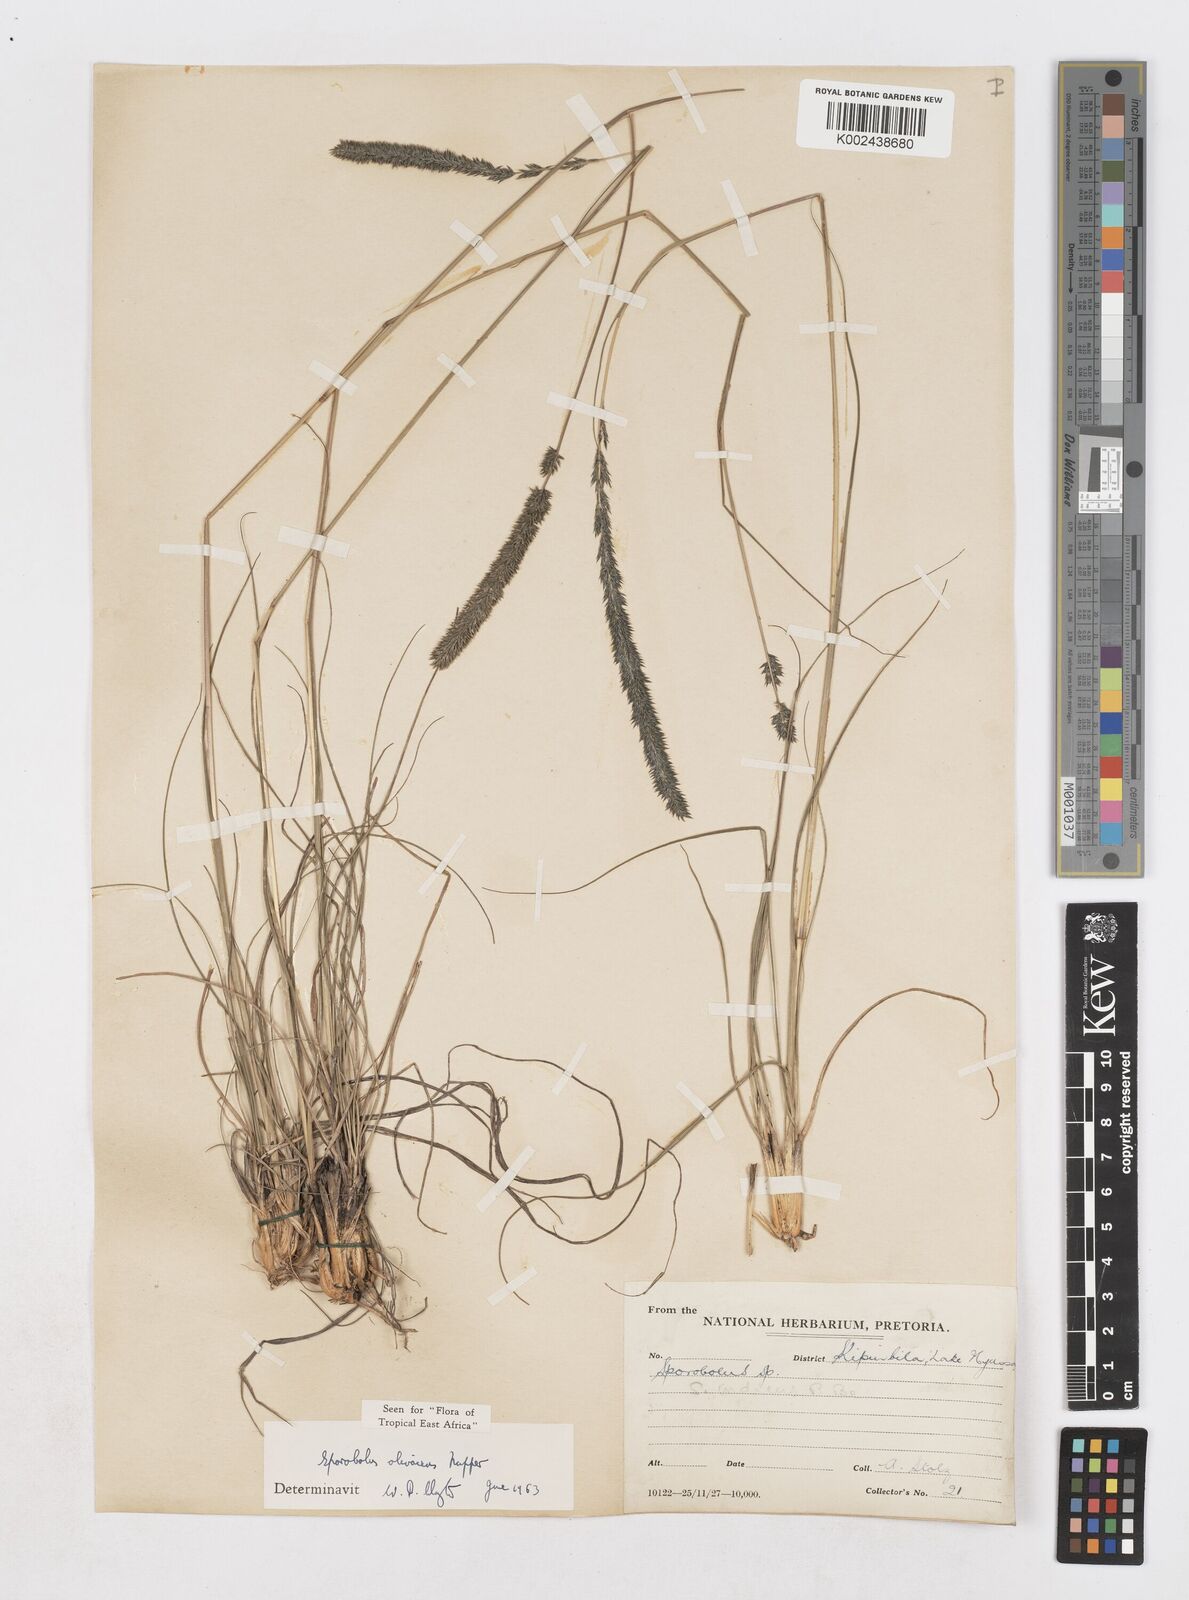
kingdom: Plantae
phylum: Tracheophyta
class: Liliopsida
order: Poales
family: Poaceae
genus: Sporobolus
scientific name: Sporobolus olivaceus
